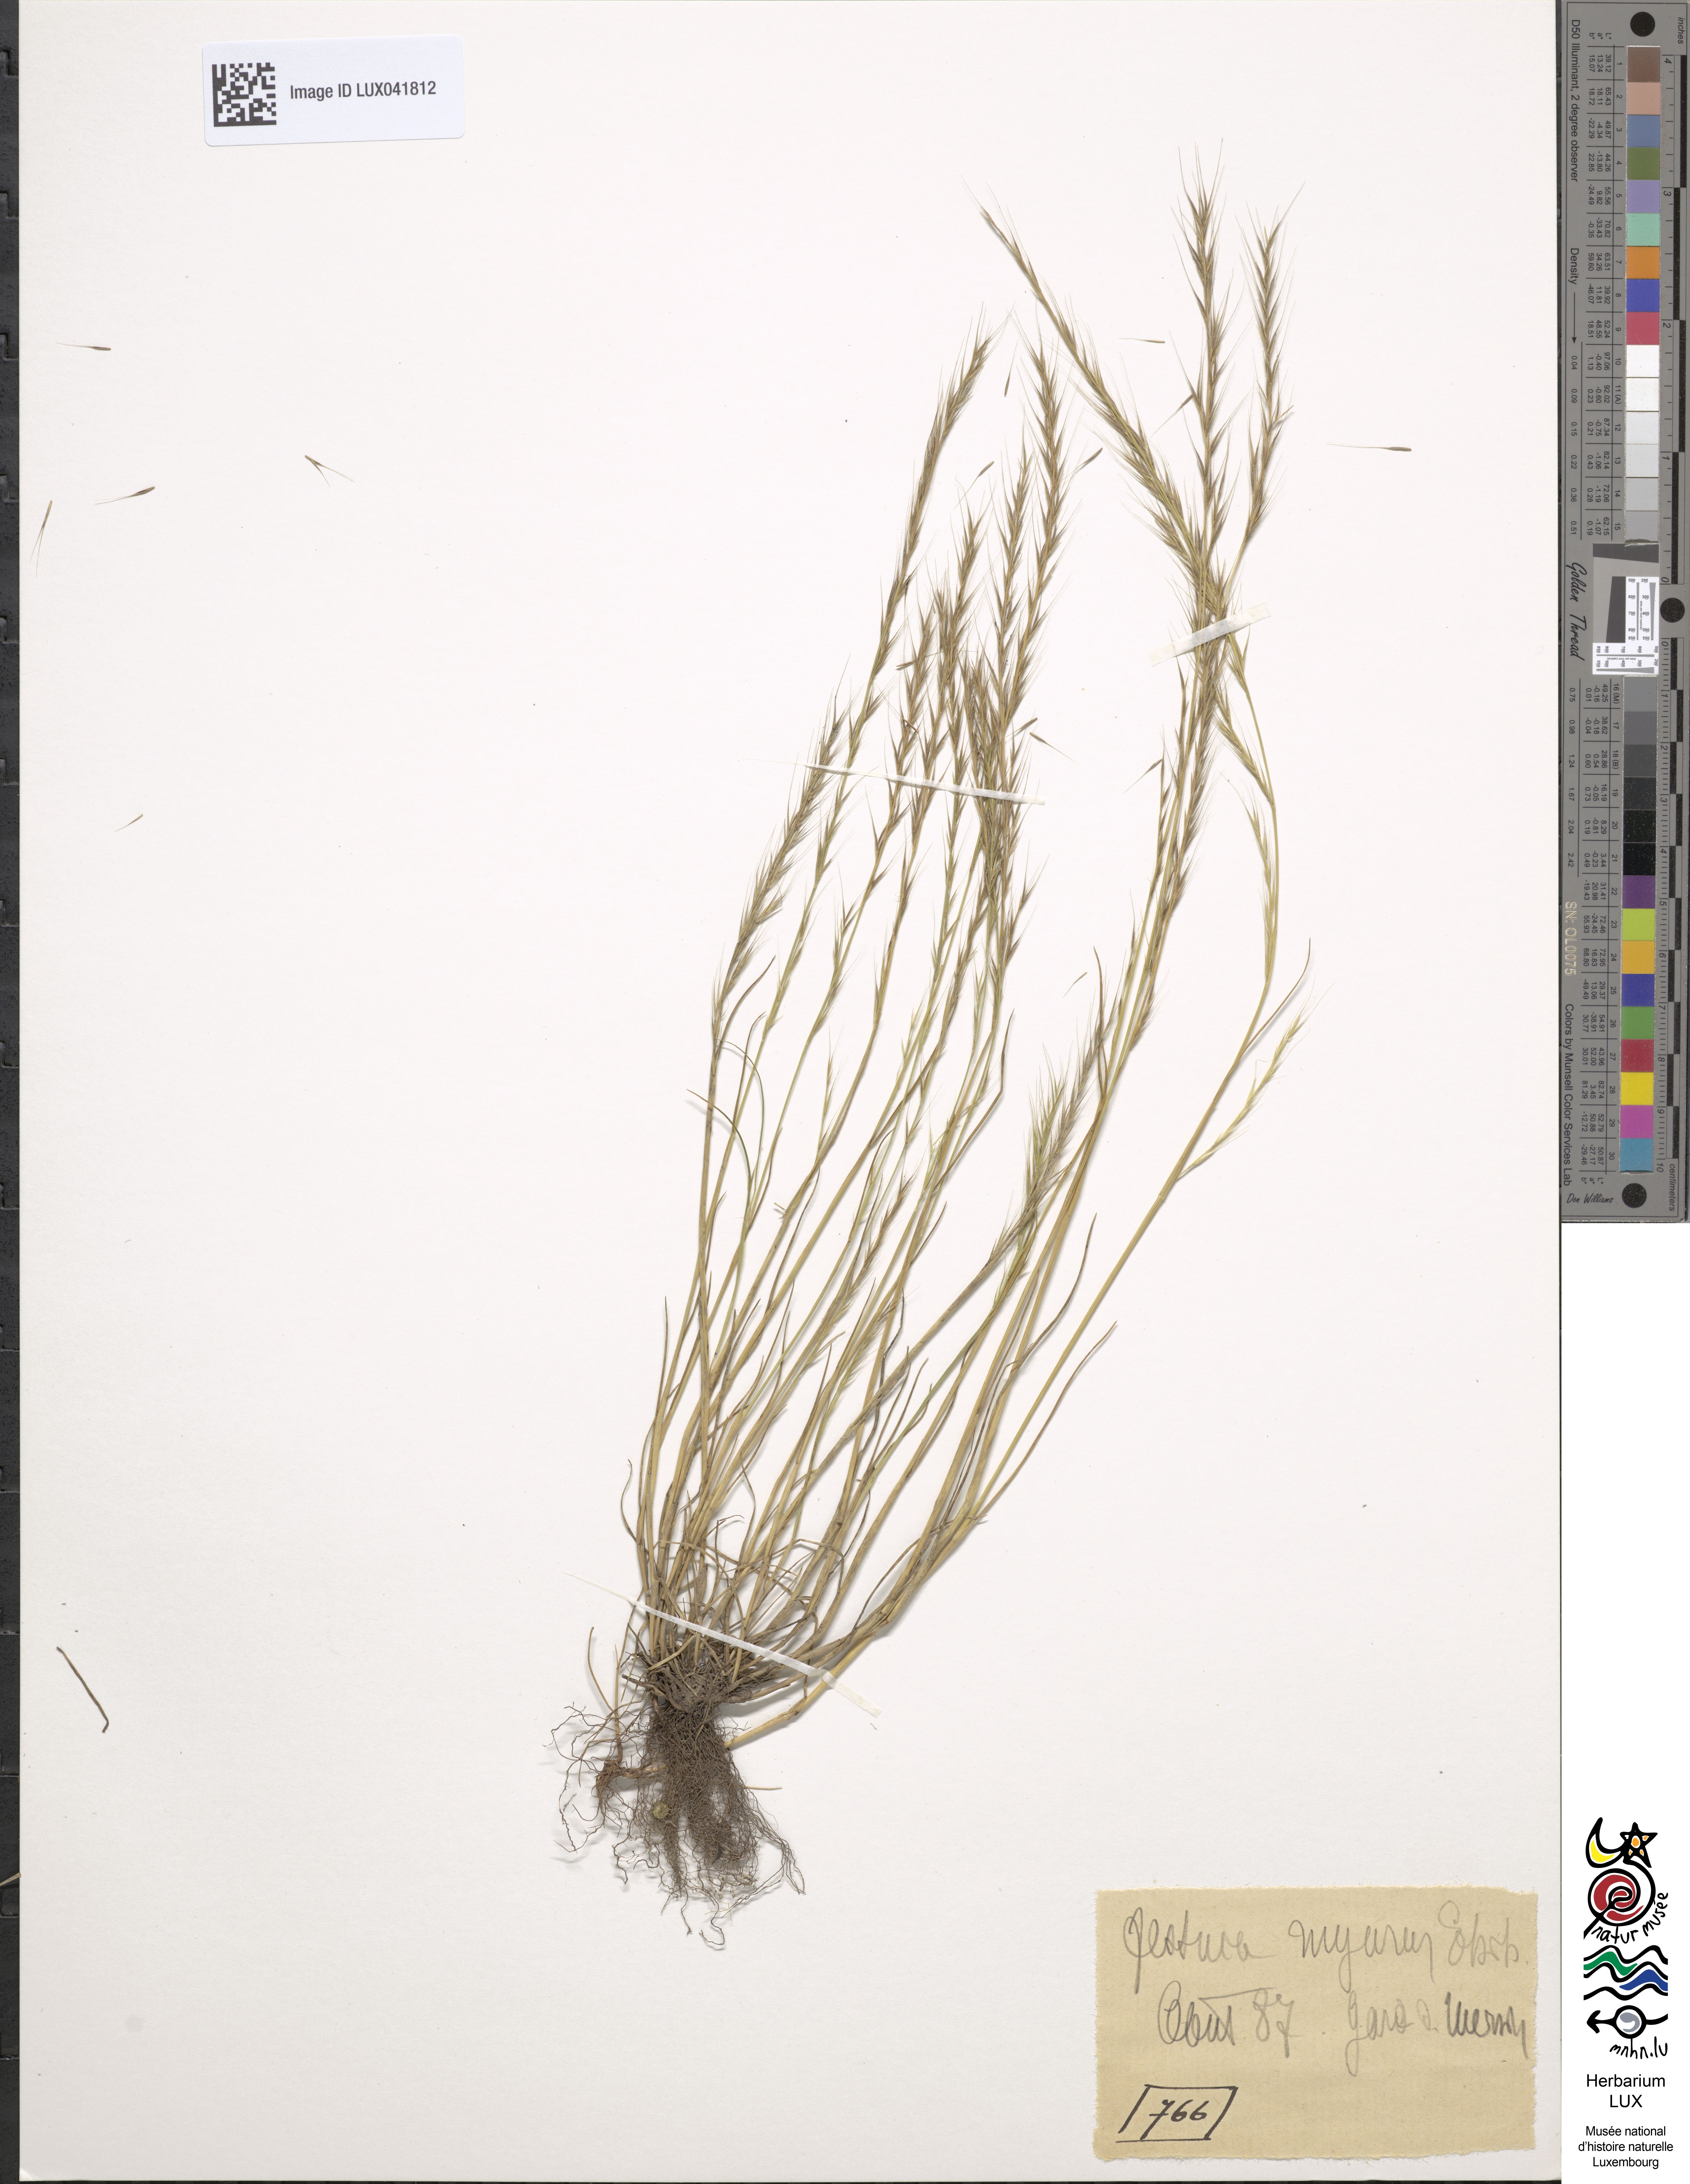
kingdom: Plantae
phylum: Tracheophyta
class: Liliopsida
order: Poales
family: Poaceae
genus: Festuca
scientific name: Festuca myuros
